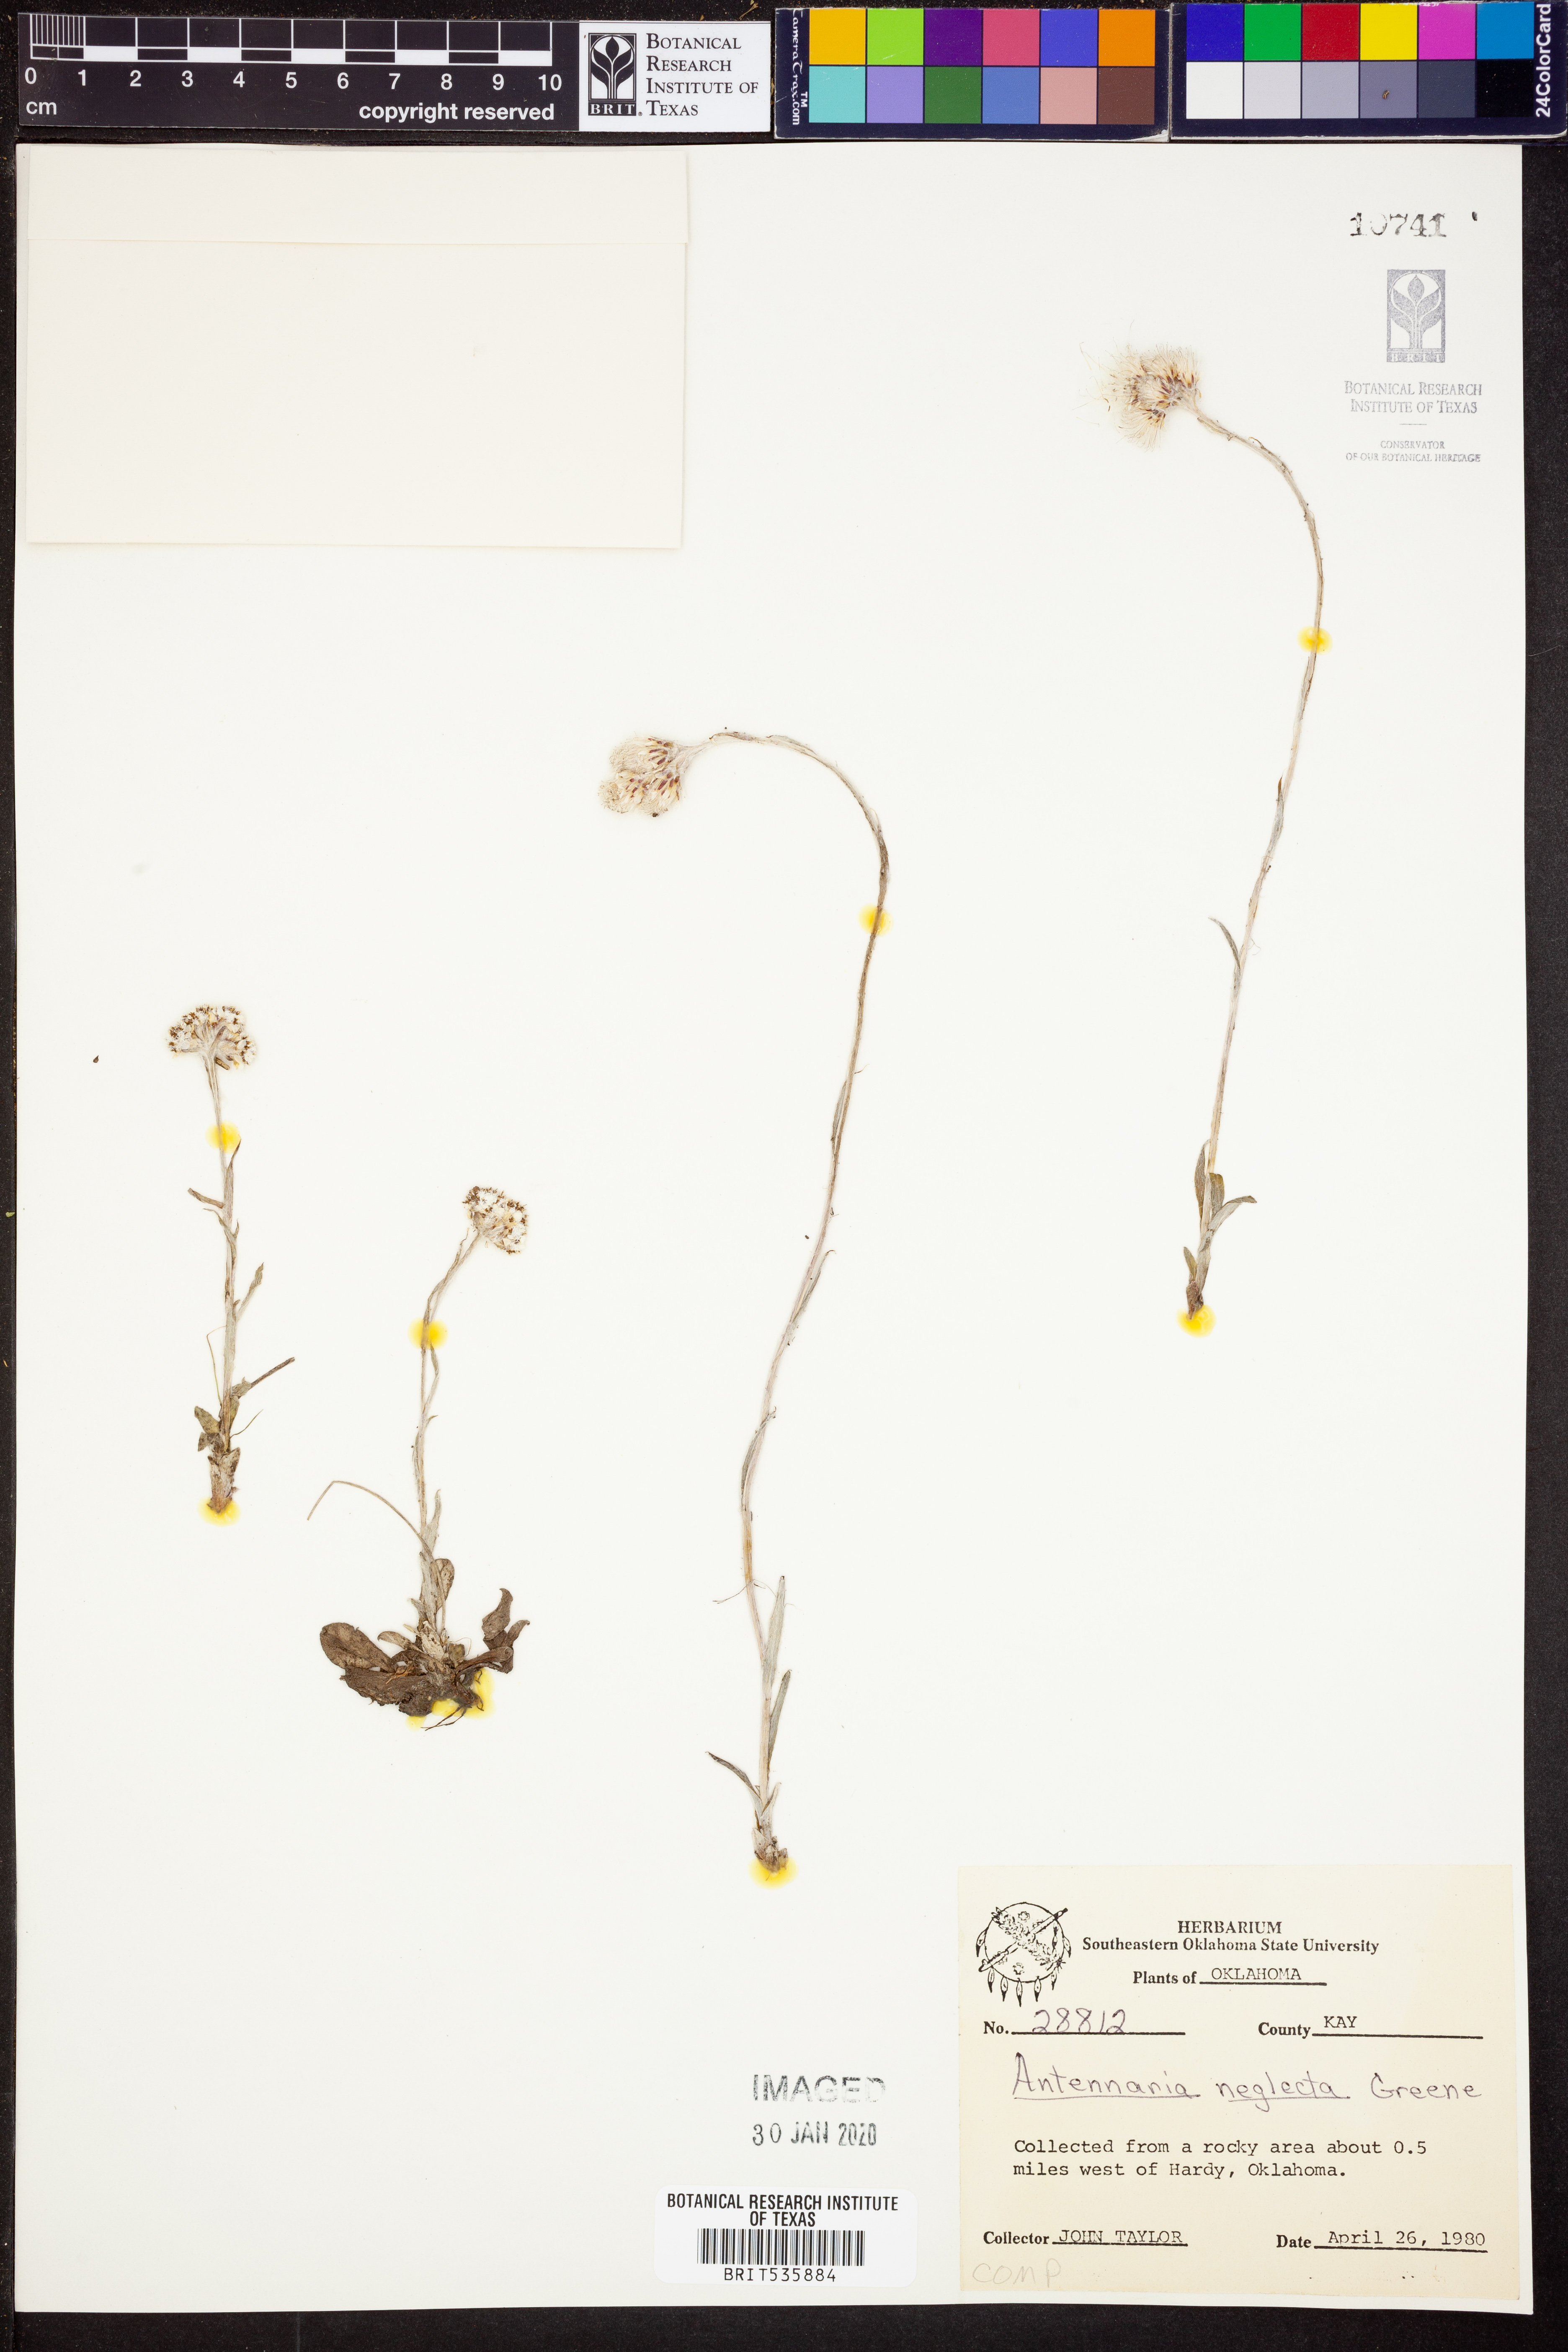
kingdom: Plantae
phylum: Tracheophyta
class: Magnoliopsida
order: Asterales
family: Asteraceae
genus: Antennaria
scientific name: Antennaria neglecta
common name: Field pussytoes
